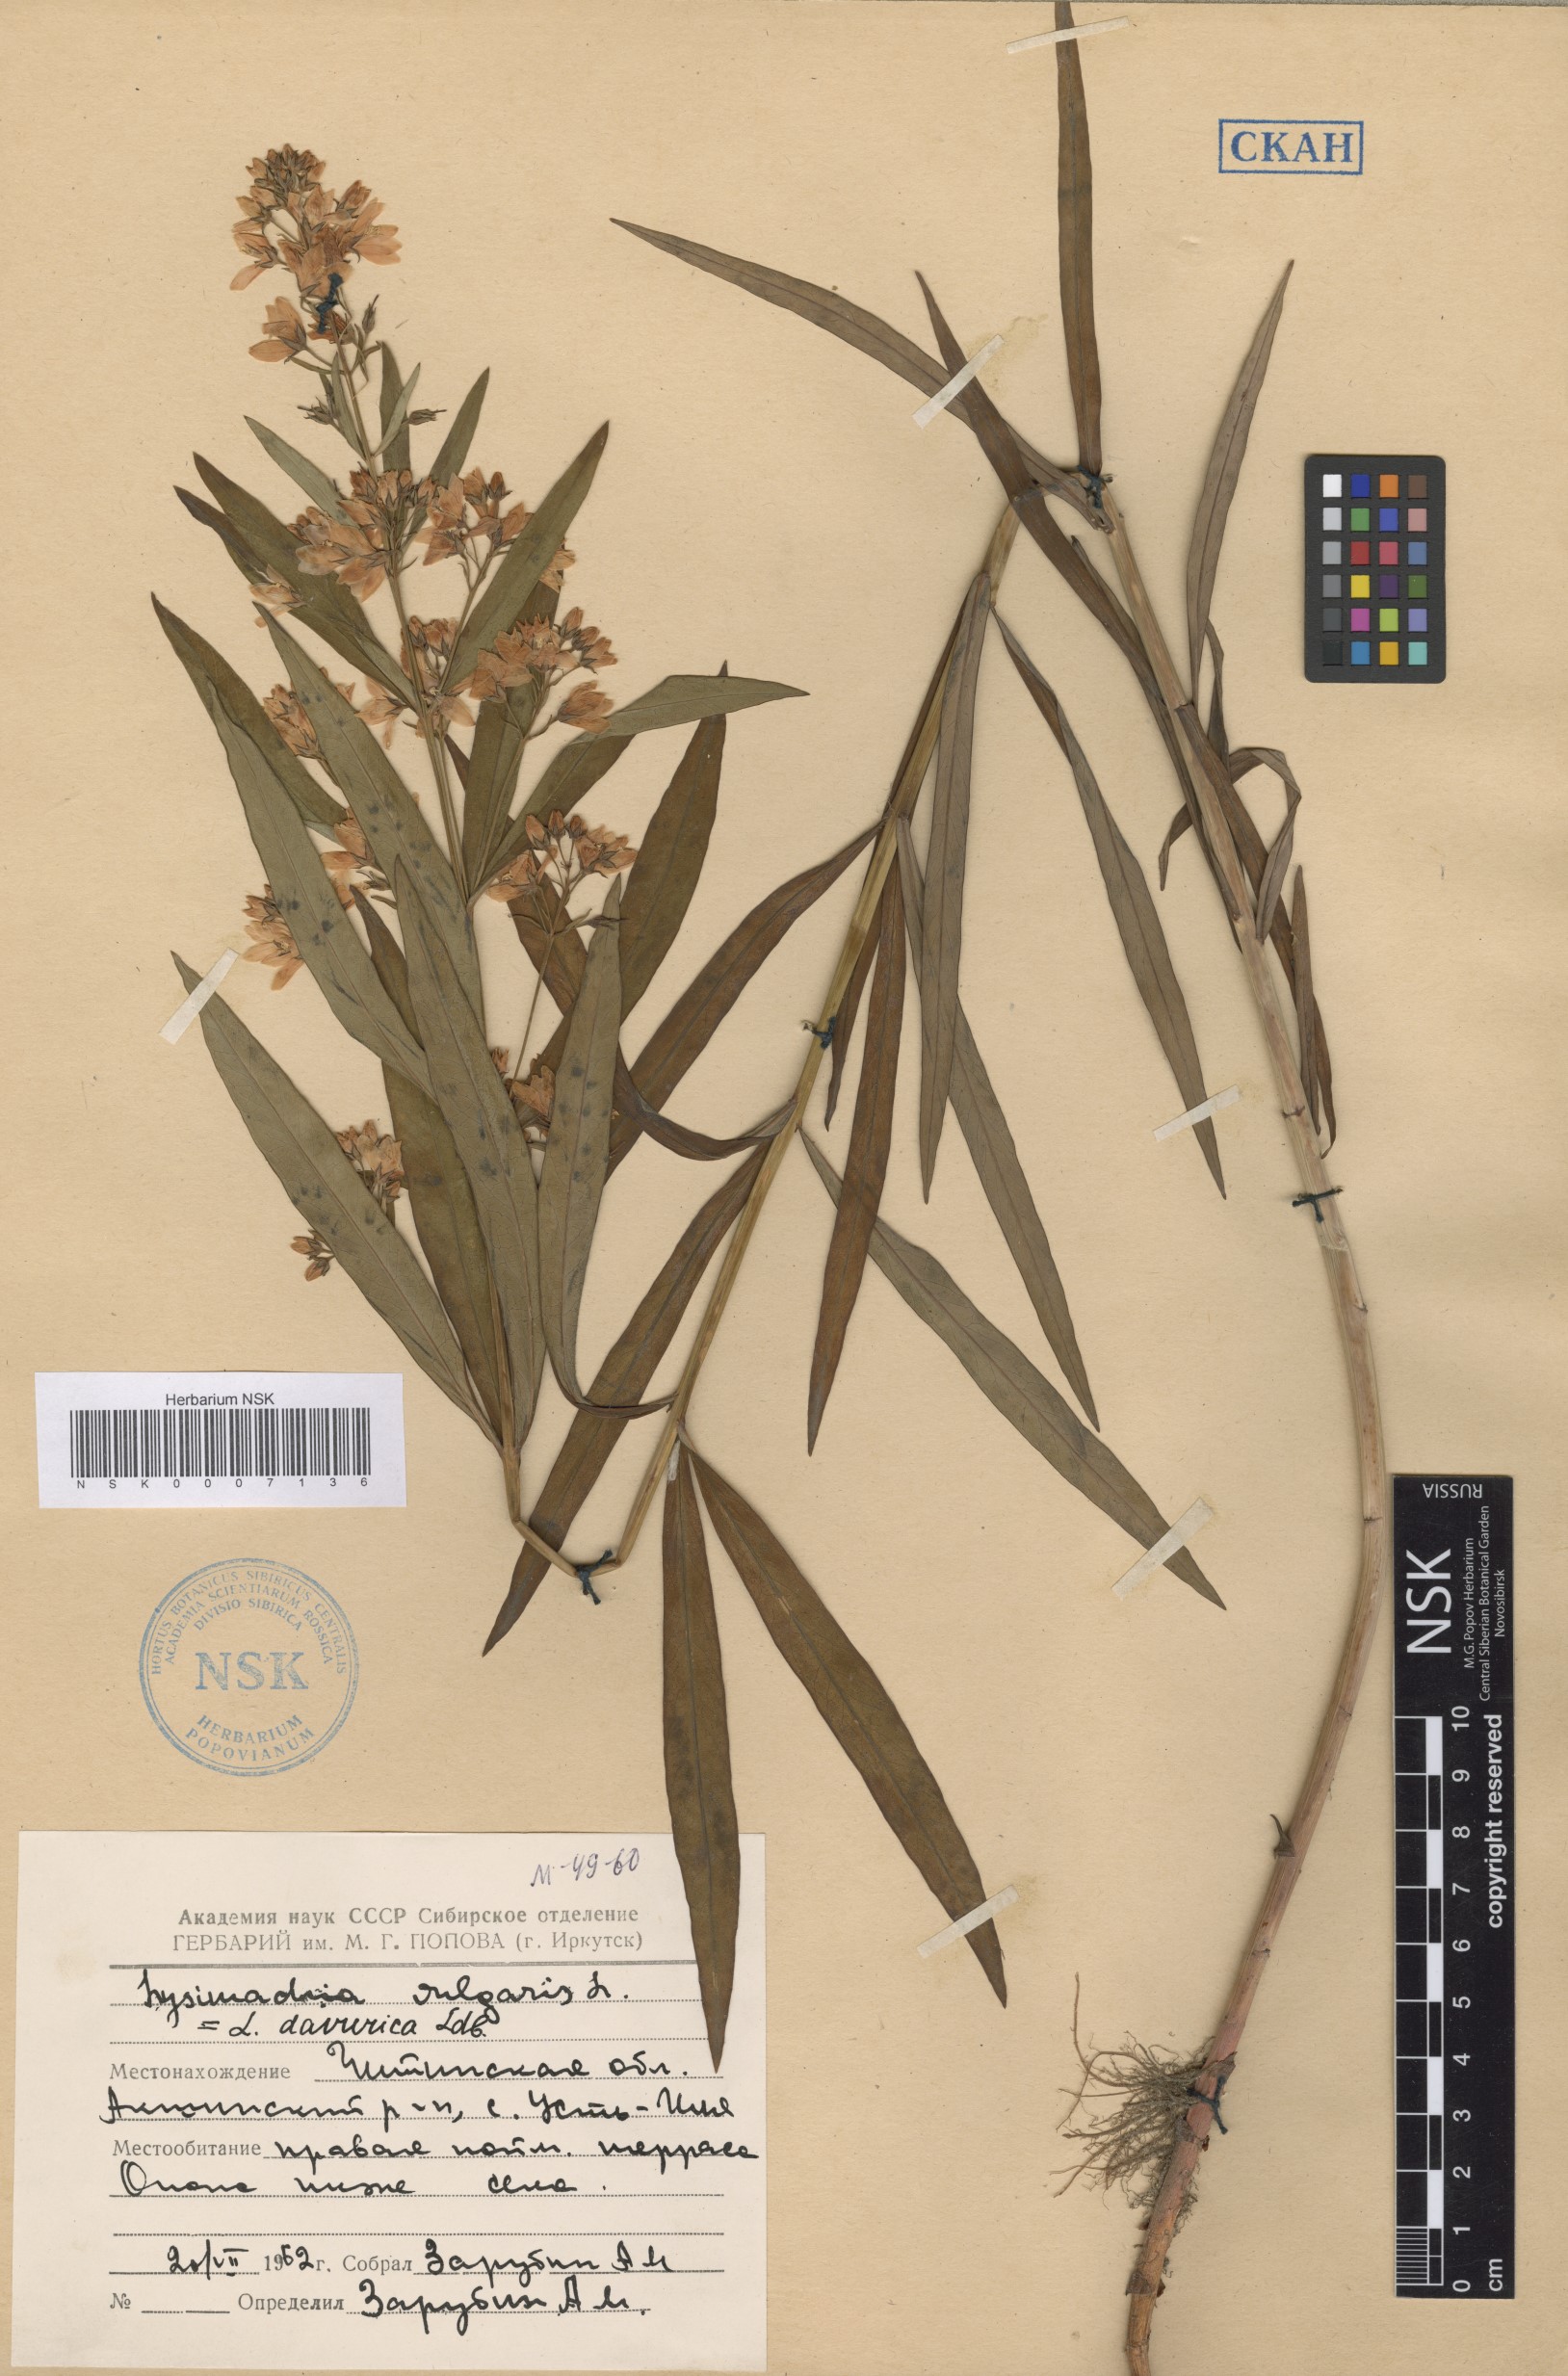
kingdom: Plantae
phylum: Tracheophyta
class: Magnoliopsida
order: Ericales
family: Primulaceae
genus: Lysimachia
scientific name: Lysimachia davurica
